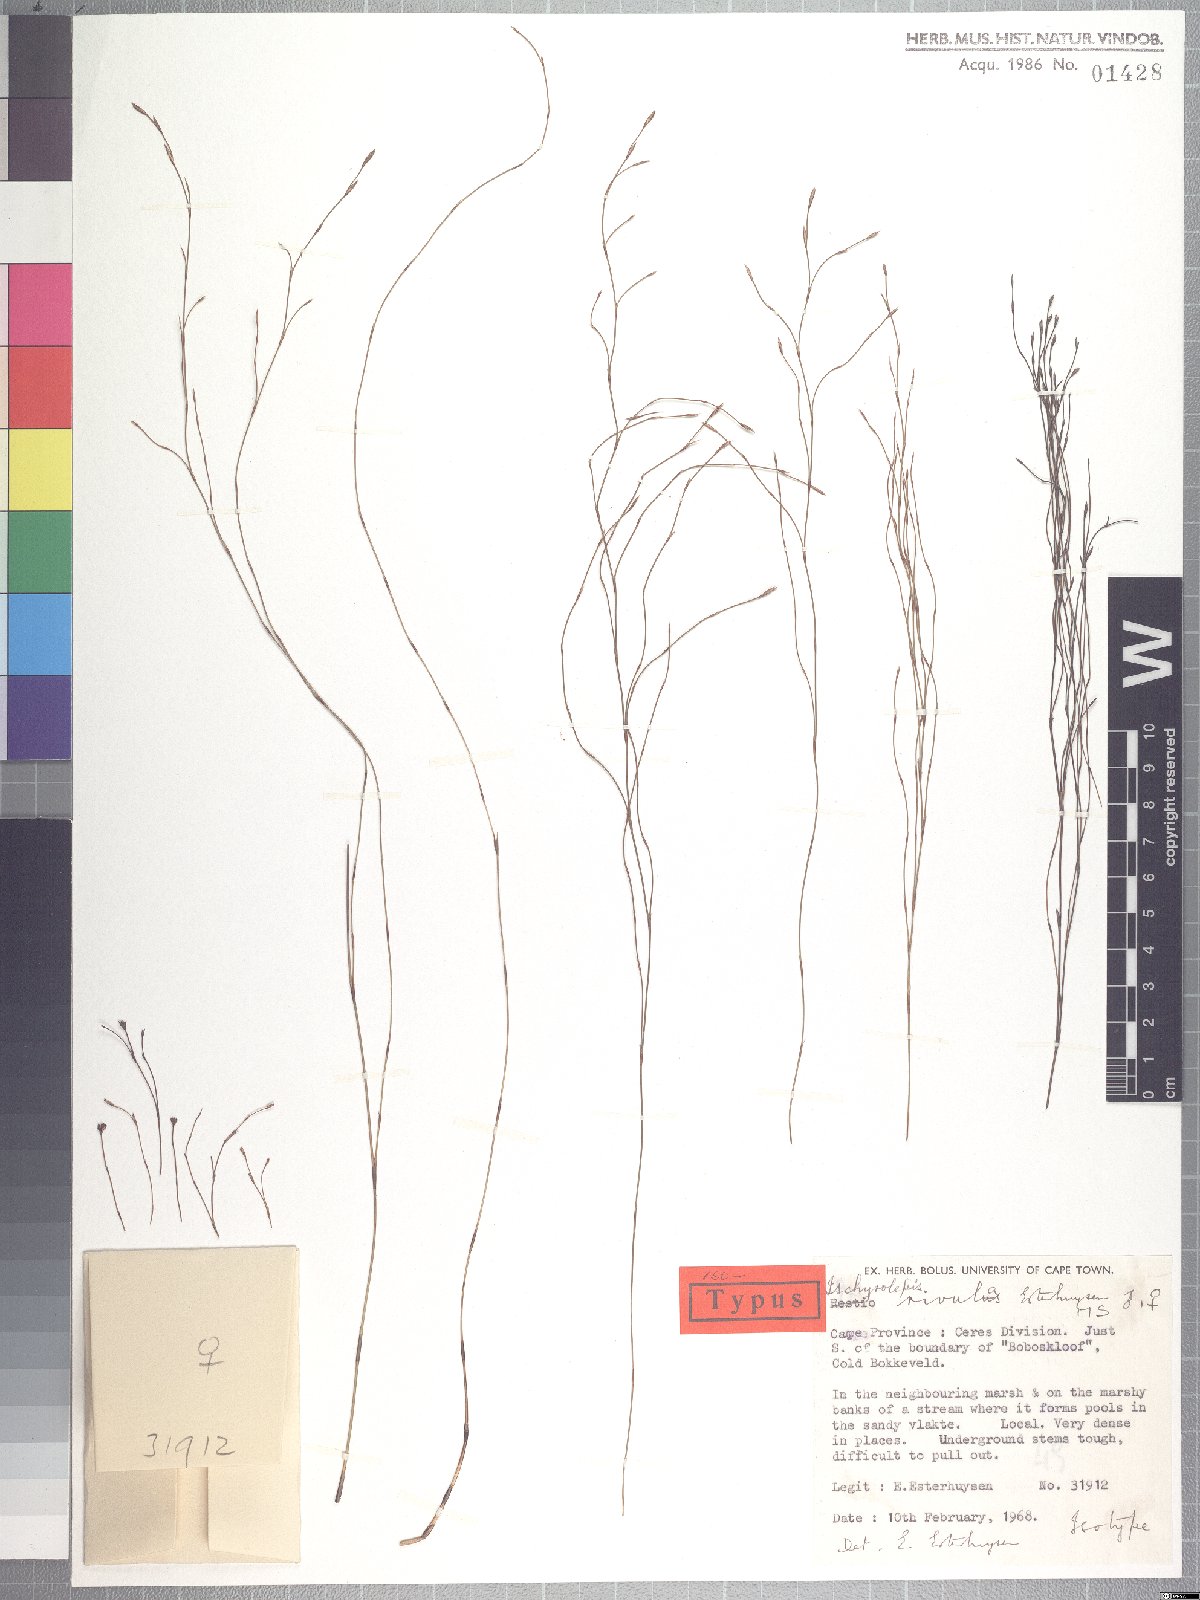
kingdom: Plantae
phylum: Tracheophyta
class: Liliopsida
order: Poales
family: Restionaceae
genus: Restio
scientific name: Restio rivulus
